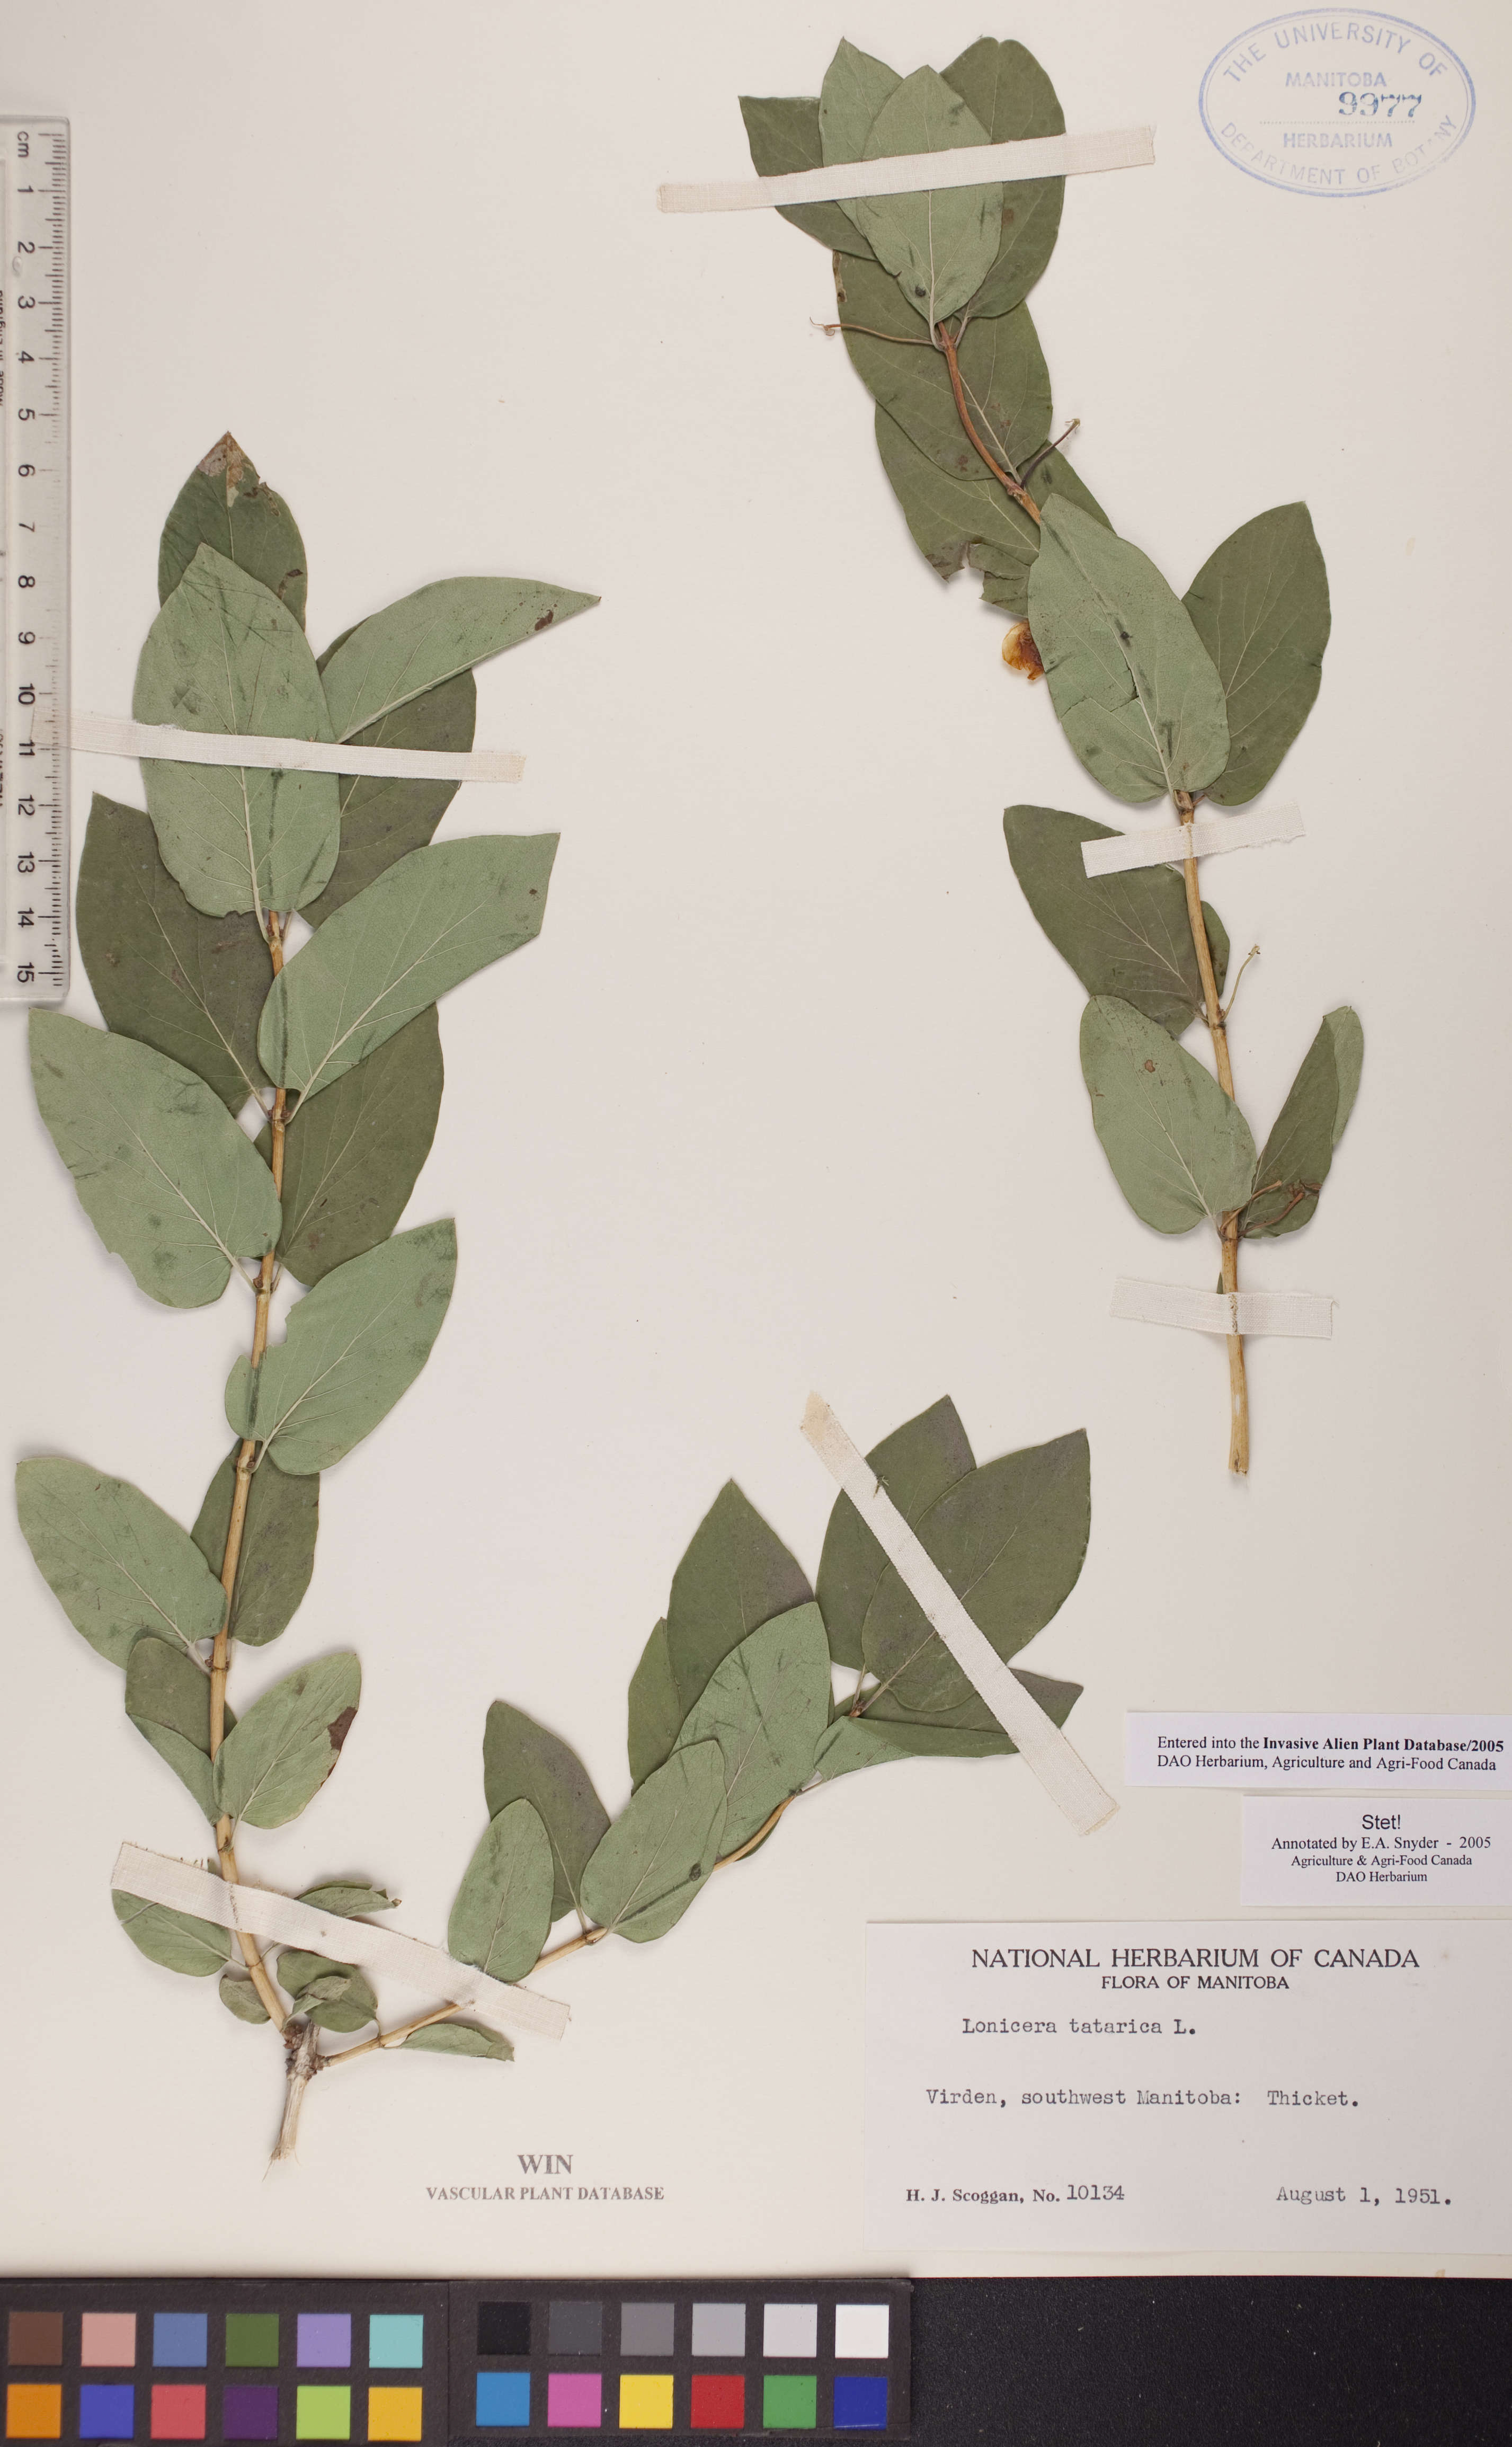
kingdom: Plantae
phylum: Tracheophyta
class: Magnoliopsida
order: Dipsacales
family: Caprifoliaceae
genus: Lonicera
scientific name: Lonicera tatarica
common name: Tatarian honeysuckle
